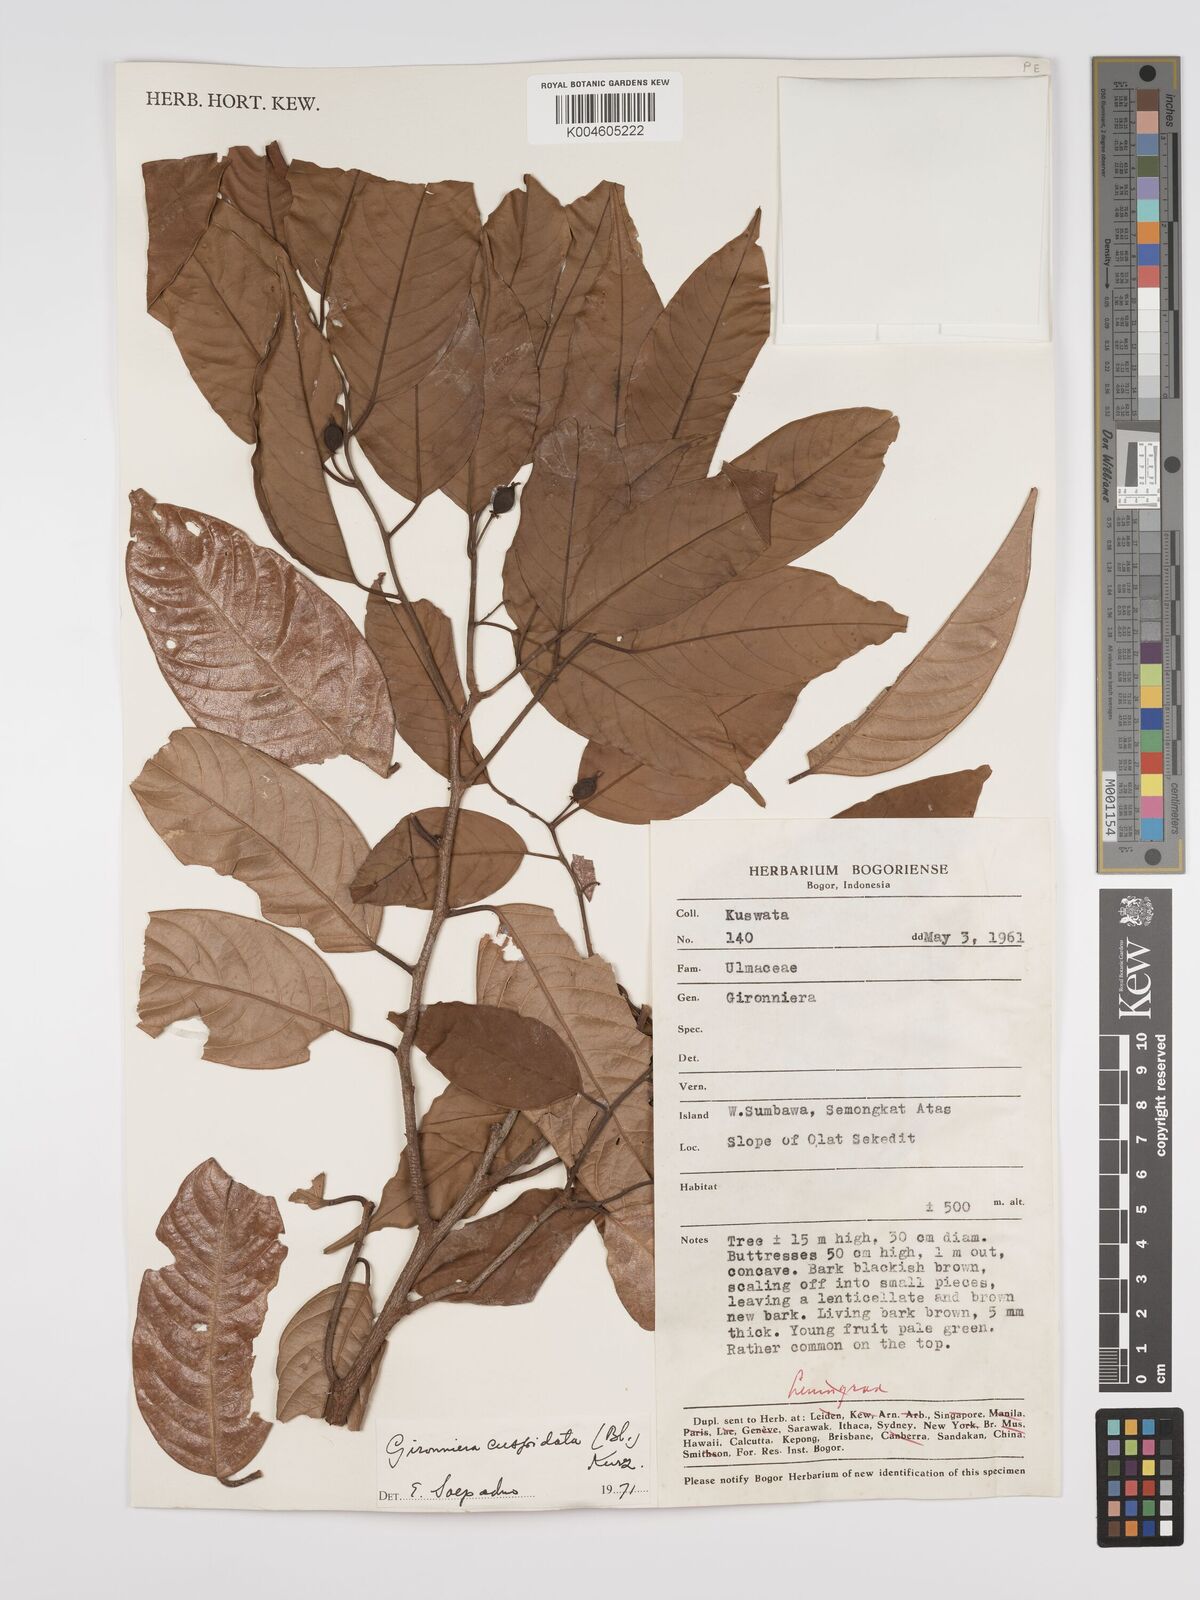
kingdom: Plantae
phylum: Tracheophyta
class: Magnoliopsida
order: Rosales
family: Cannabaceae
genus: Aphananthe
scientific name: Aphananthe cuspidata
